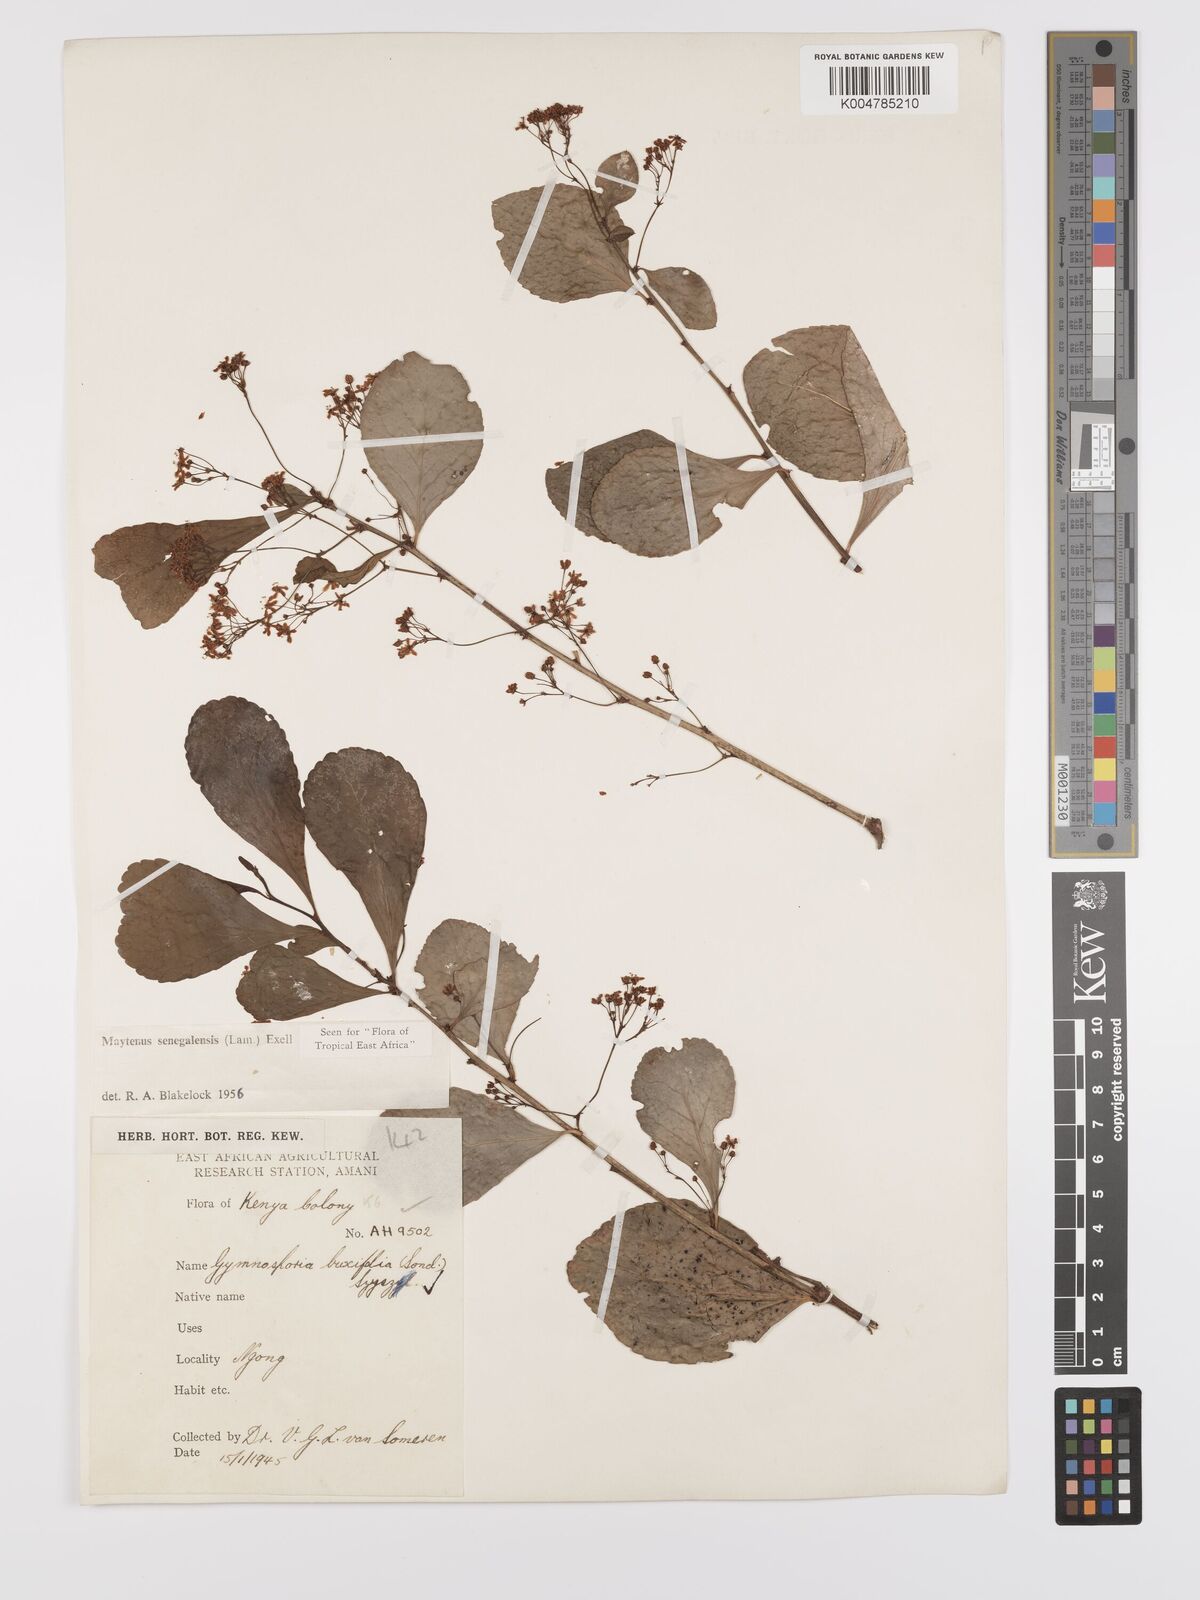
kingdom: Plantae
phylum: Tracheophyta
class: Magnoliopsida
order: Celastrales
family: Celastraceae
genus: Gymnosporia
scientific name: Gymnosporia heterophylla
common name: Angle-stem spikethorn
